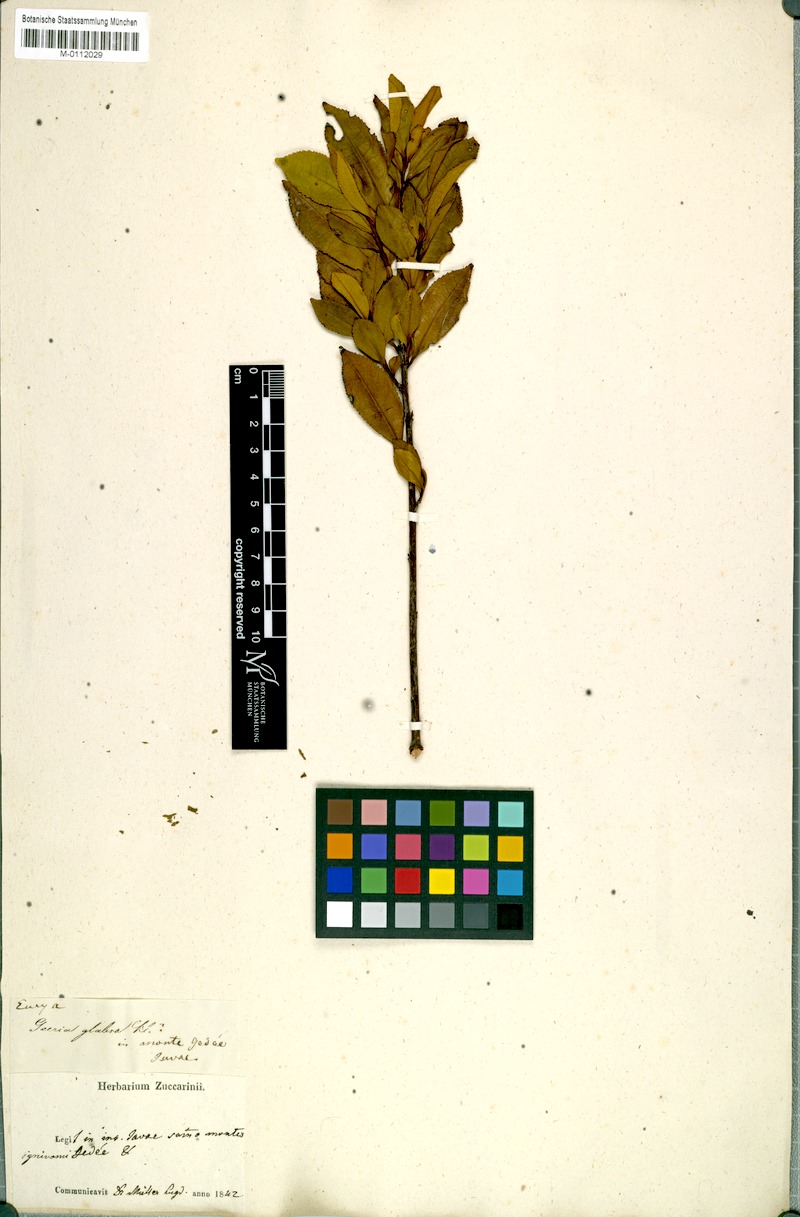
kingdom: Plantae
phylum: Tracheophyta
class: Magnoliopsida
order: Ericales
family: Pentaphylacaceae
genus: Eurya
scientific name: Eurya glabra
